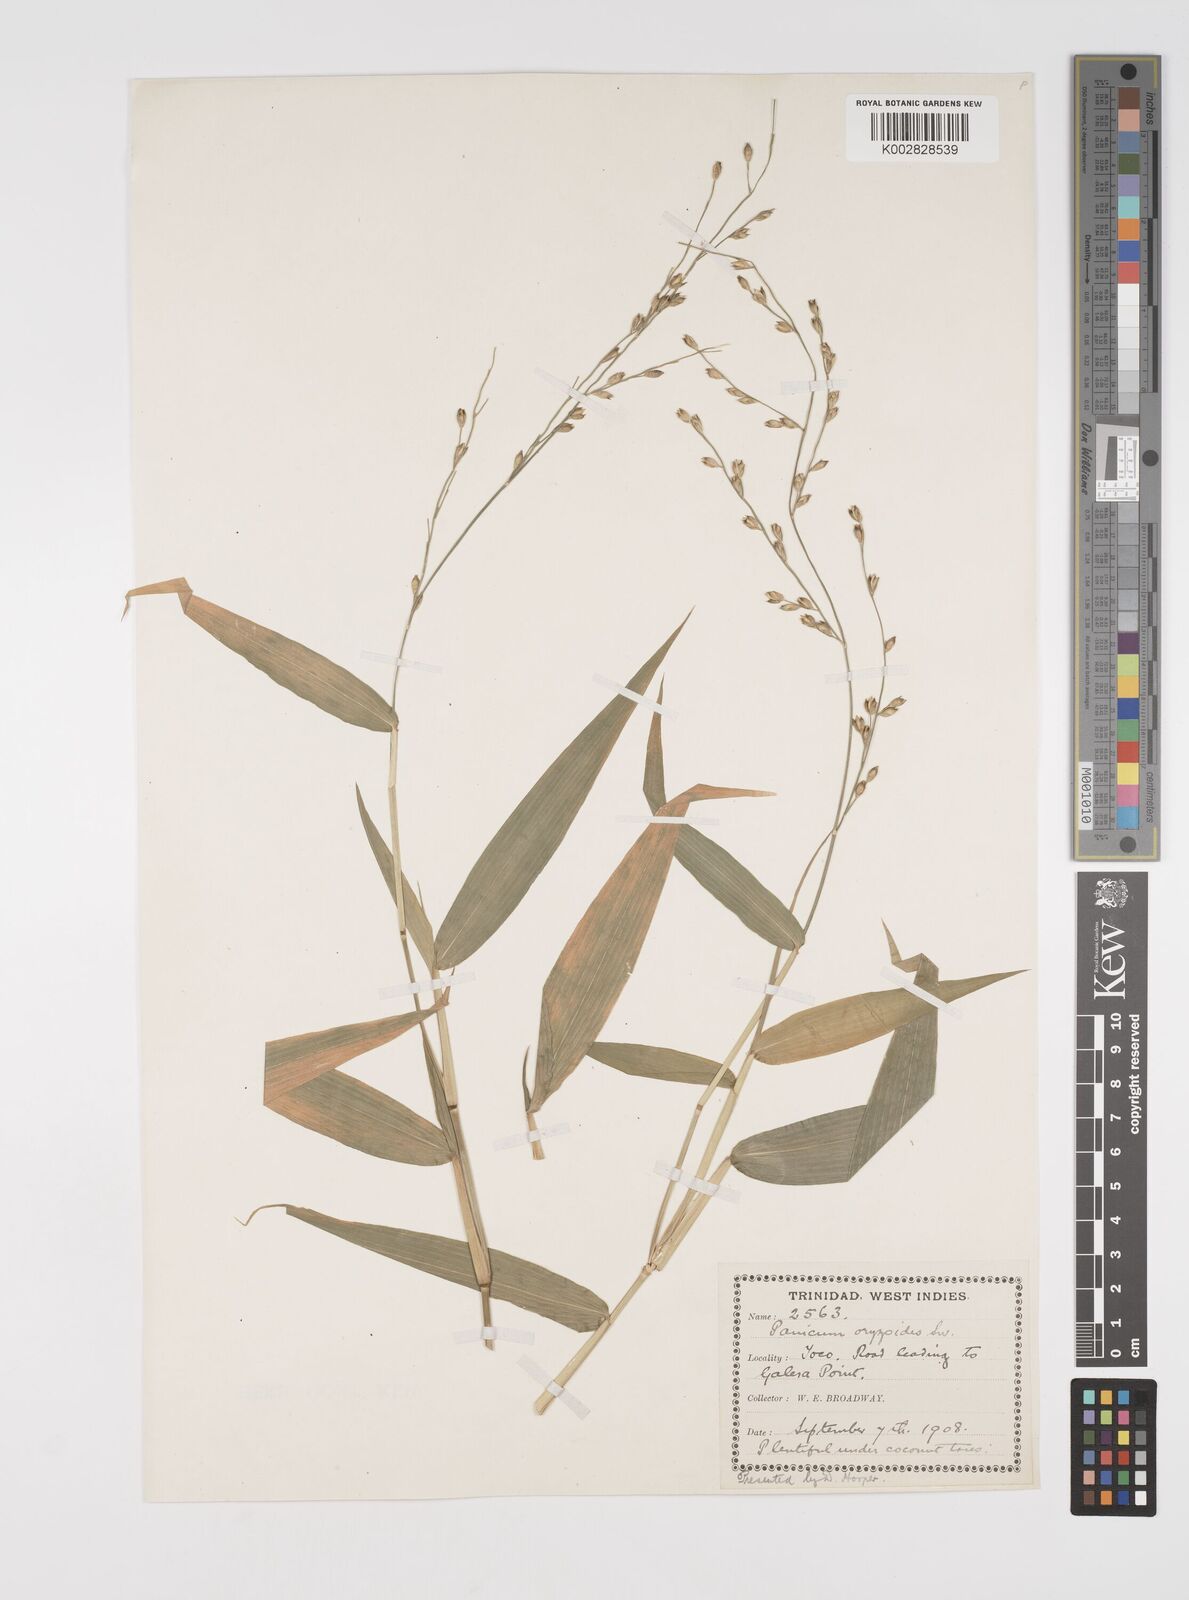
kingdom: Plantae
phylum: Tracheophyta
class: Liliopsida
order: Poales
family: Poaceae
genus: Acroceras
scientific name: Acroceras zizanioides
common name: Oat grass
